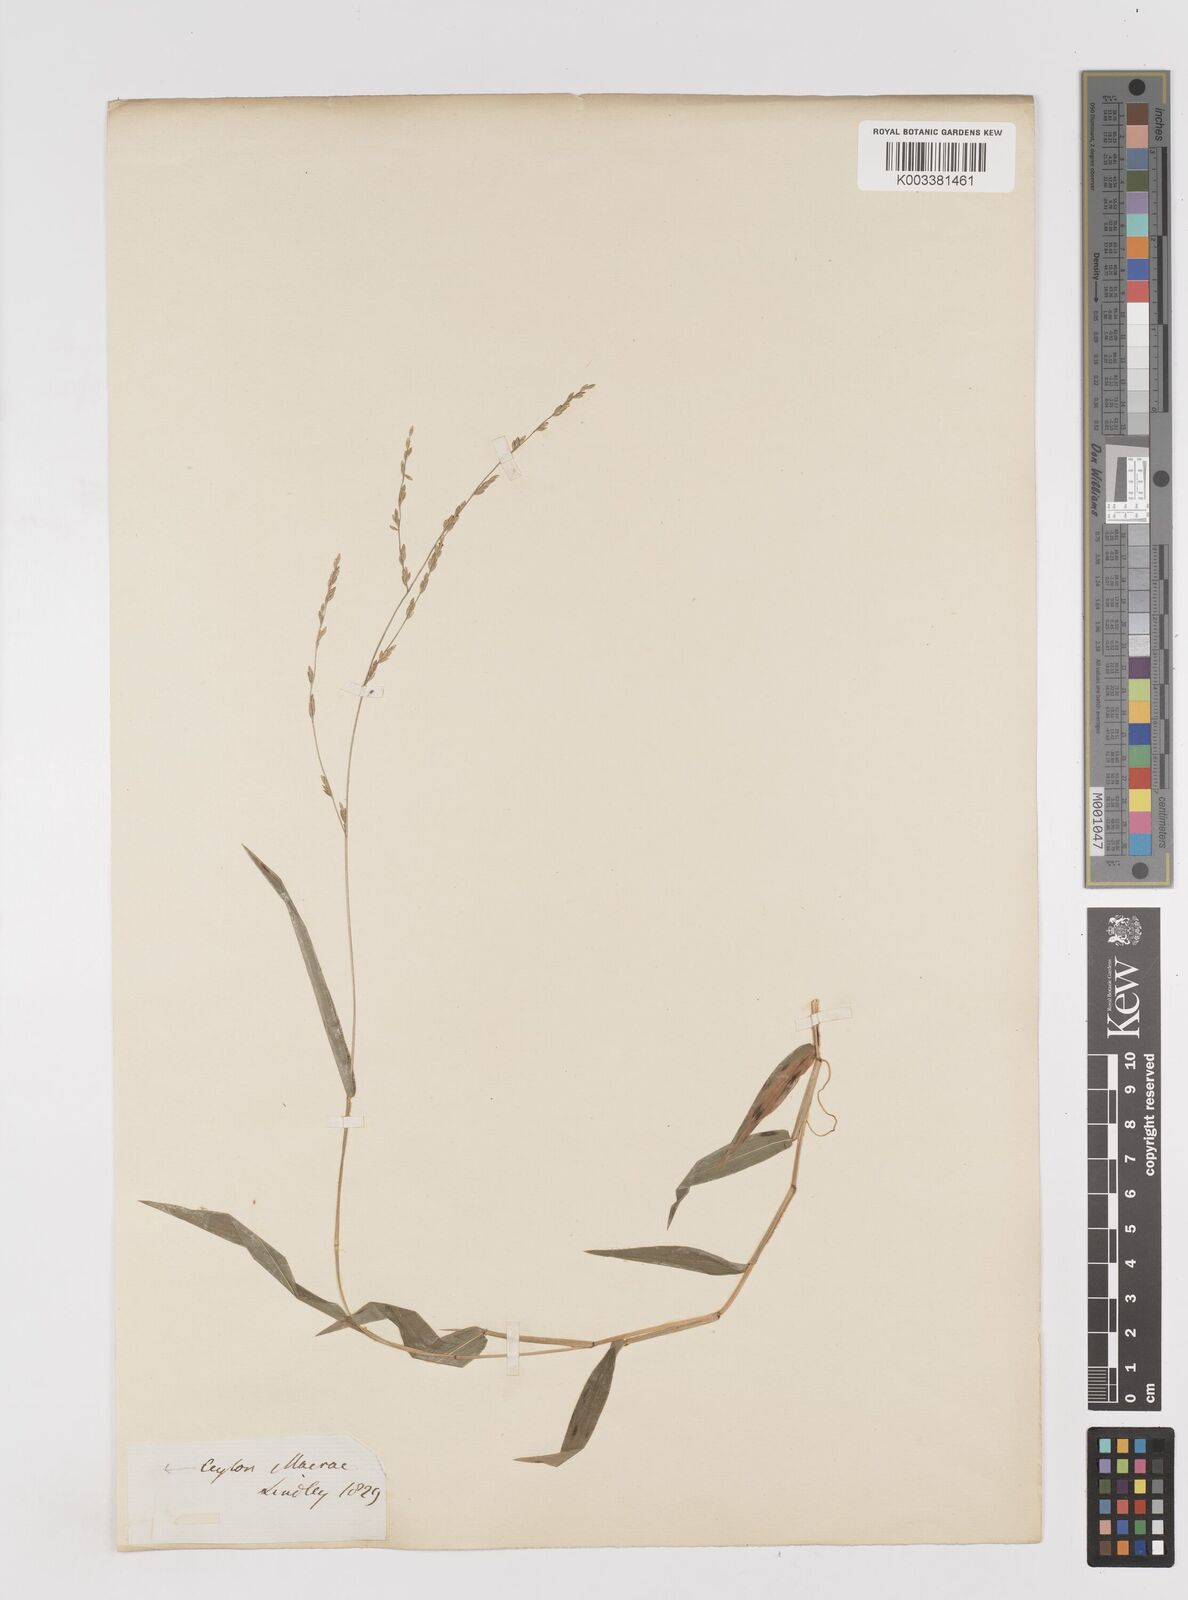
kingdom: Plantae
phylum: Tracheophyta
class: Liliopsida
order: Poales
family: Poaceae
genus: Ottochloa
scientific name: Ottochloa nodosa
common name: Slender-panic grass
